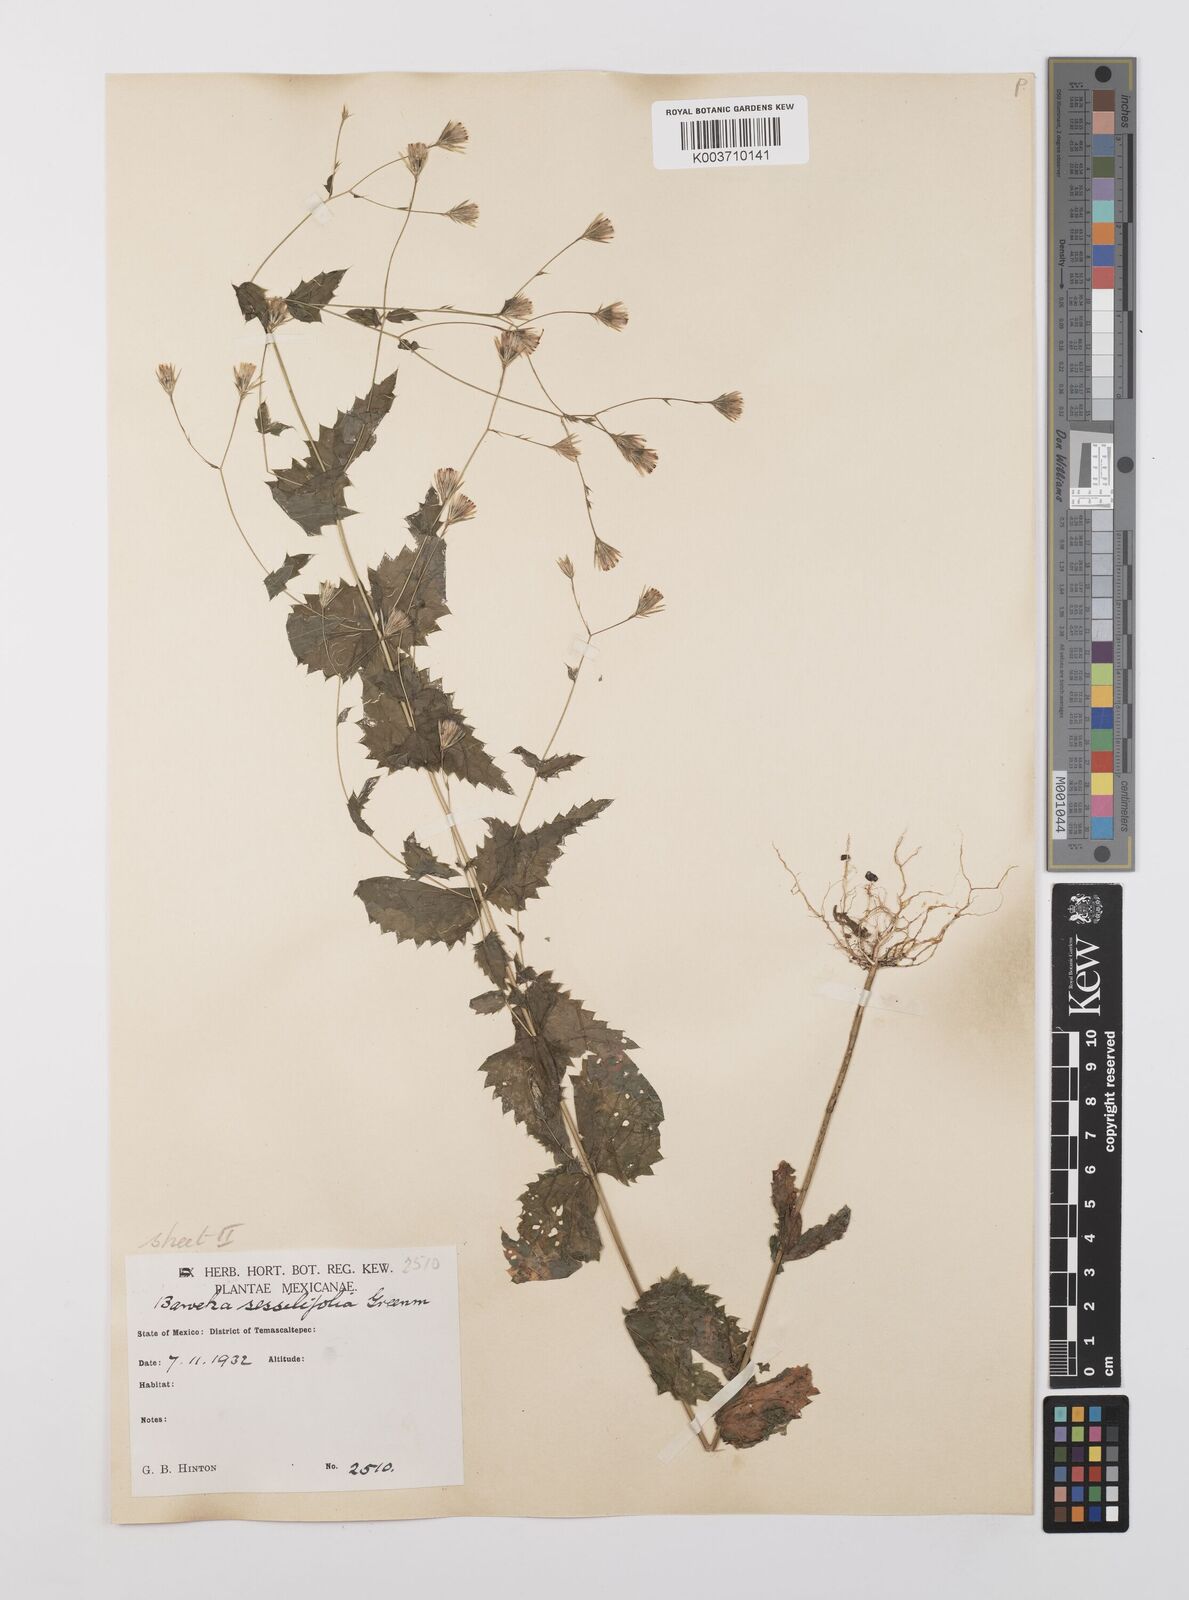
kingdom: Plantae
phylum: Tracheophyta
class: Magnoliopsida
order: Asterales
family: Asteraceae
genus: Brickellia
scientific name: Brickellia pavonii
